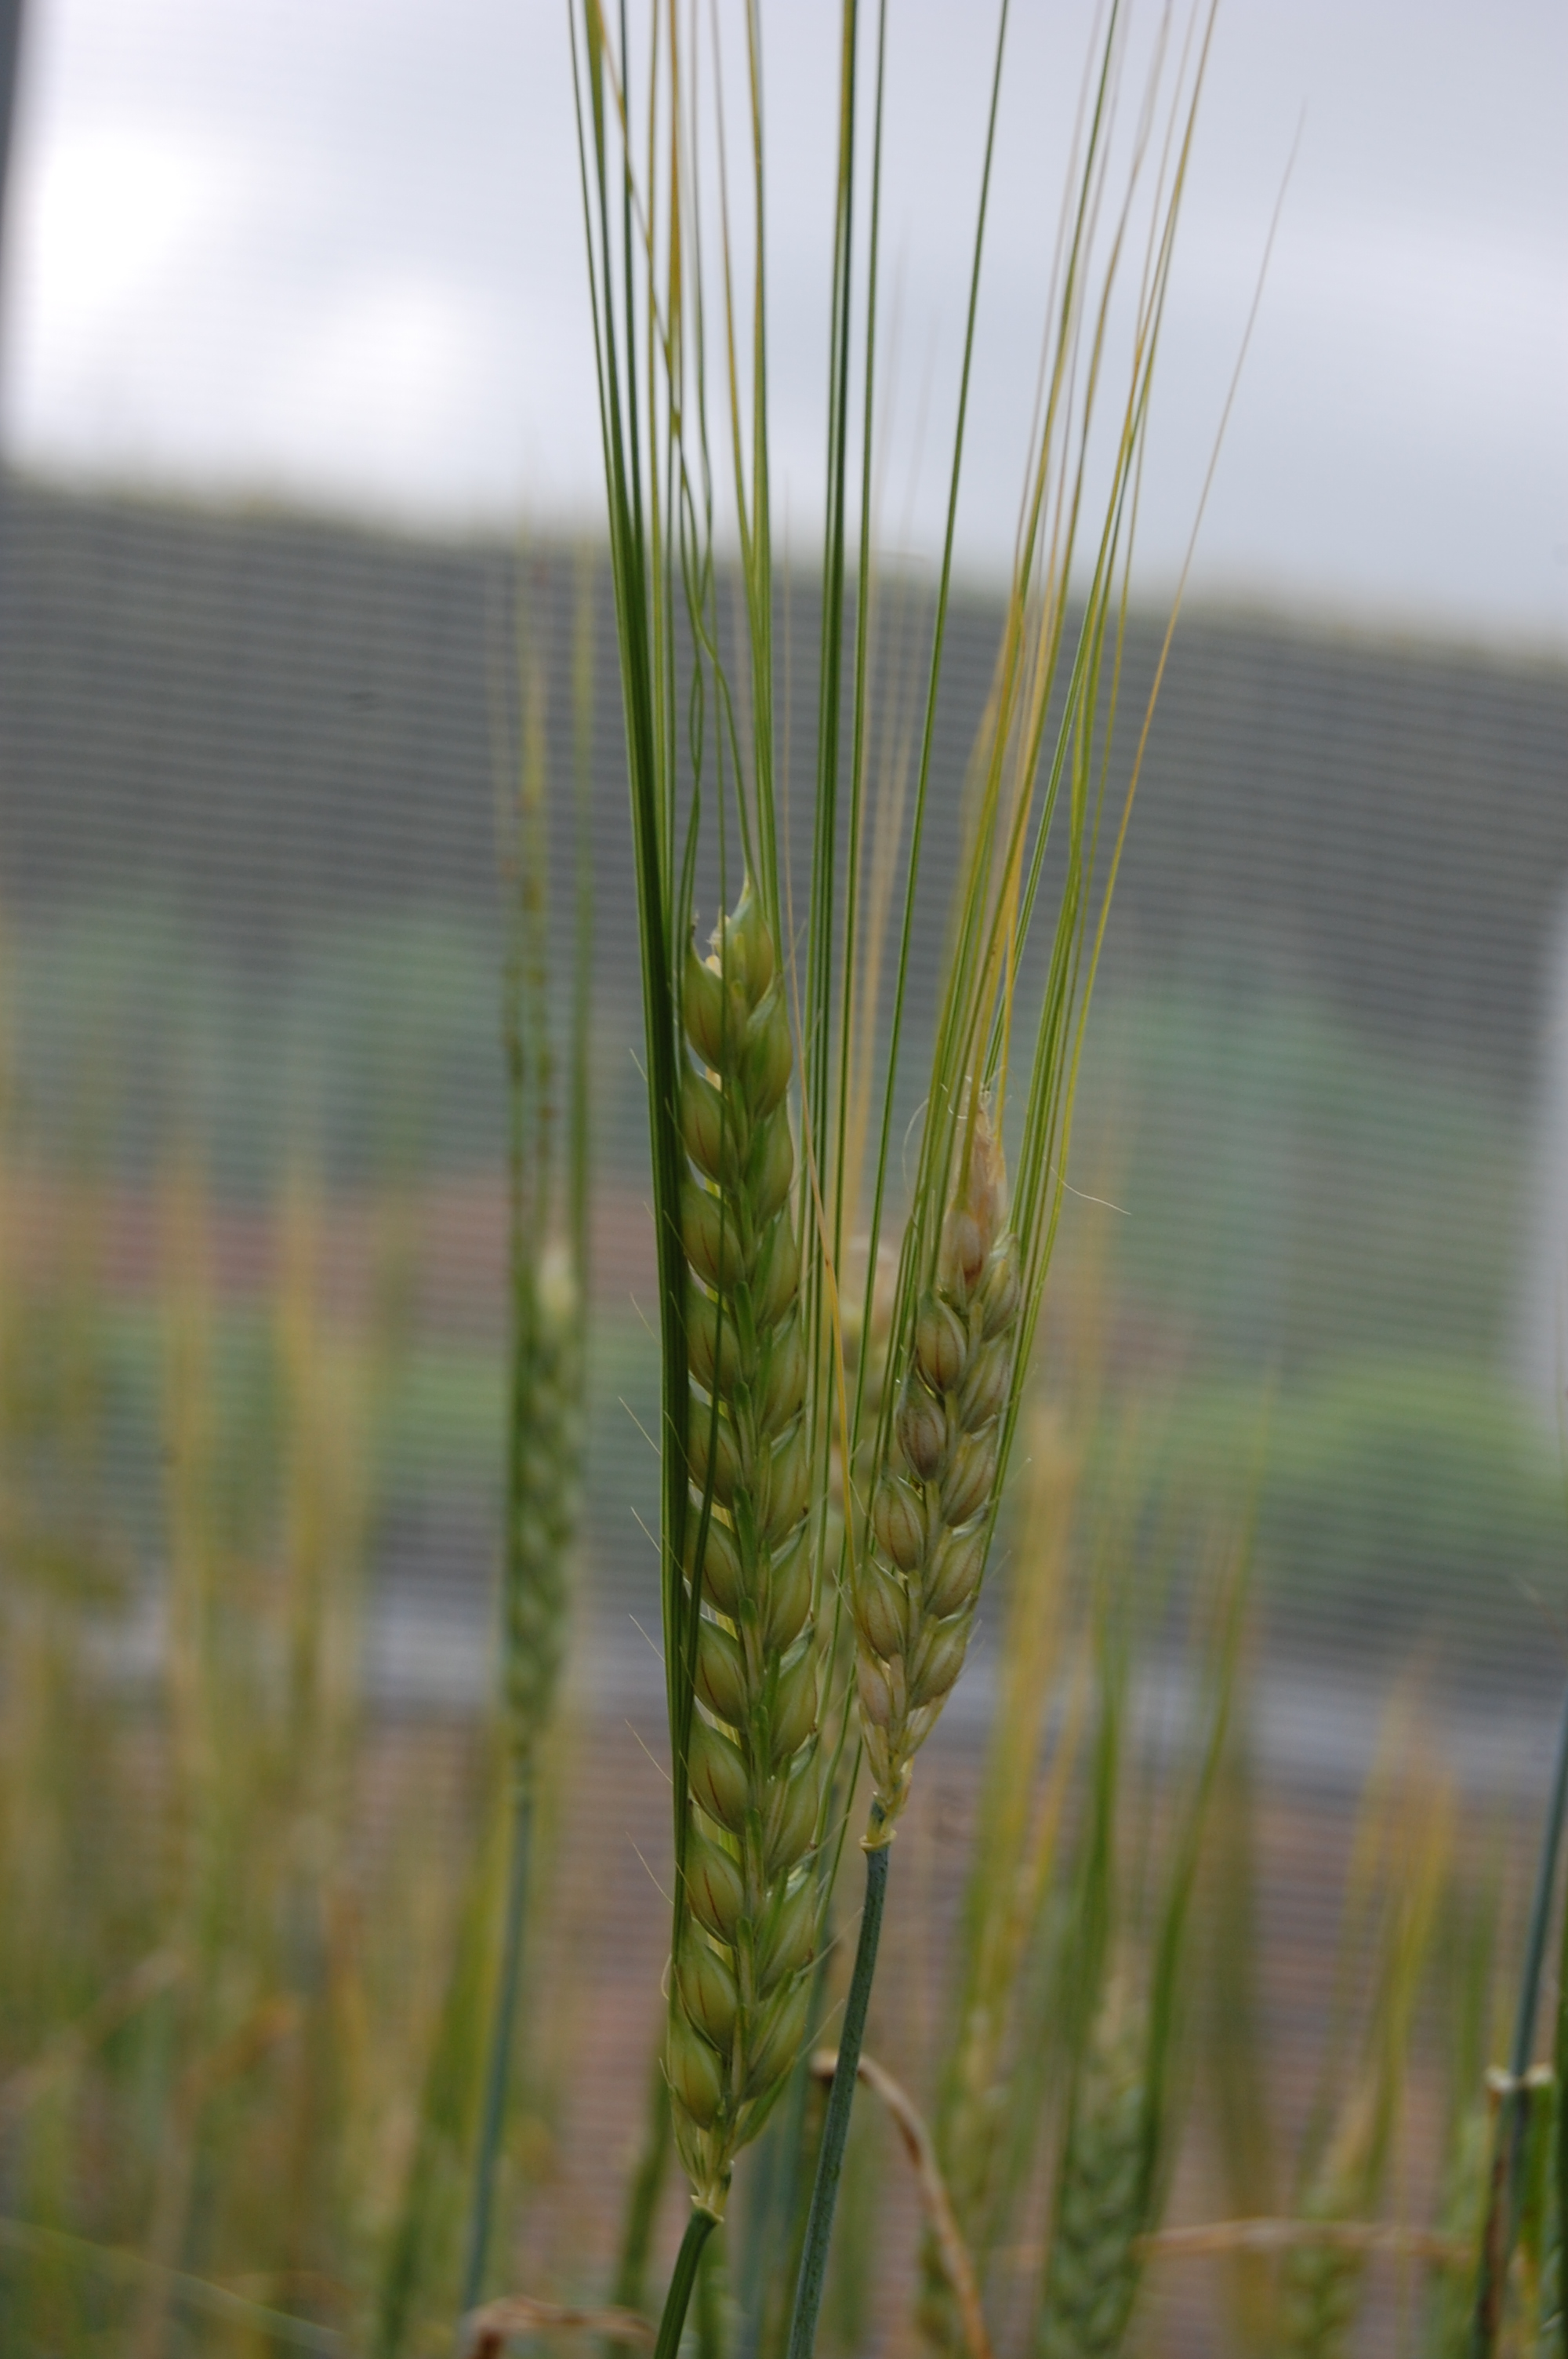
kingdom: Plantae
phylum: Tracheophyta
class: Liliopsida
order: Poales
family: Poaceae
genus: Hordeum
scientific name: Hordeum vulgare
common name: Common barley
